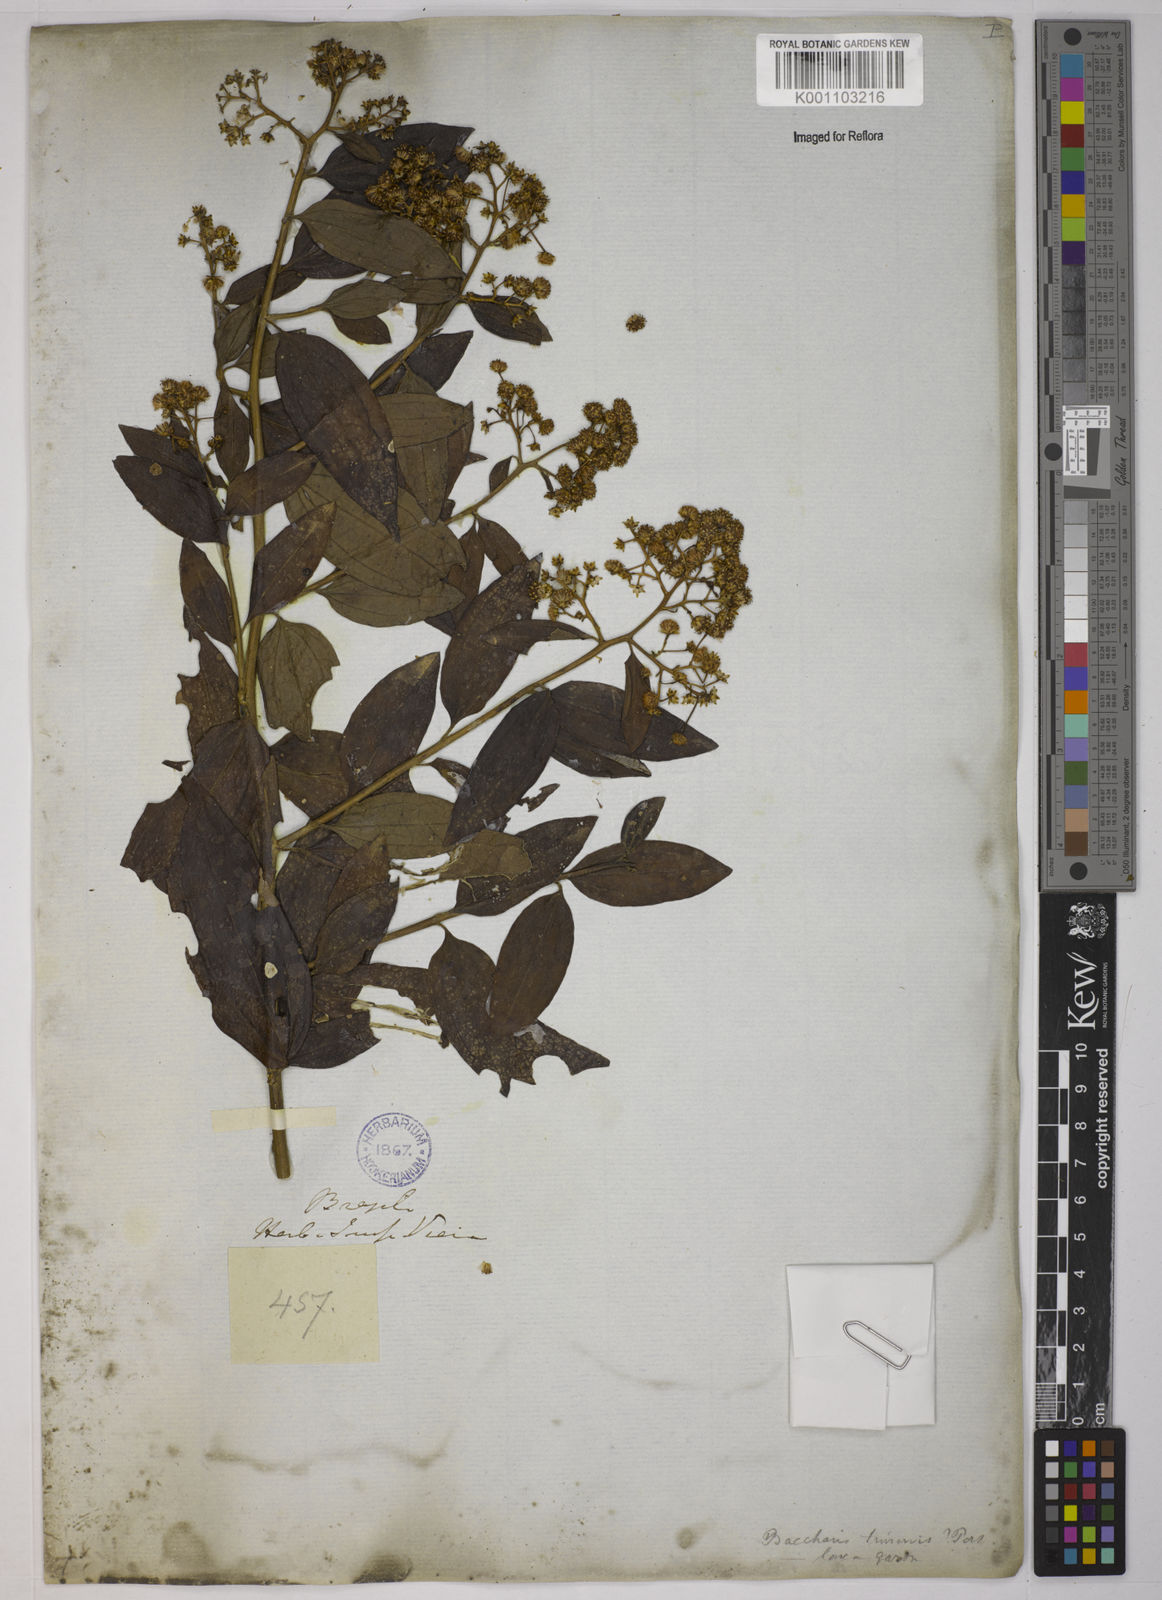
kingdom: Plantae
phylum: Tracheophyta
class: Magnoliopsida
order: Asterales
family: Asteraceae
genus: Baccharis
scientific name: Baccharis trinervis
